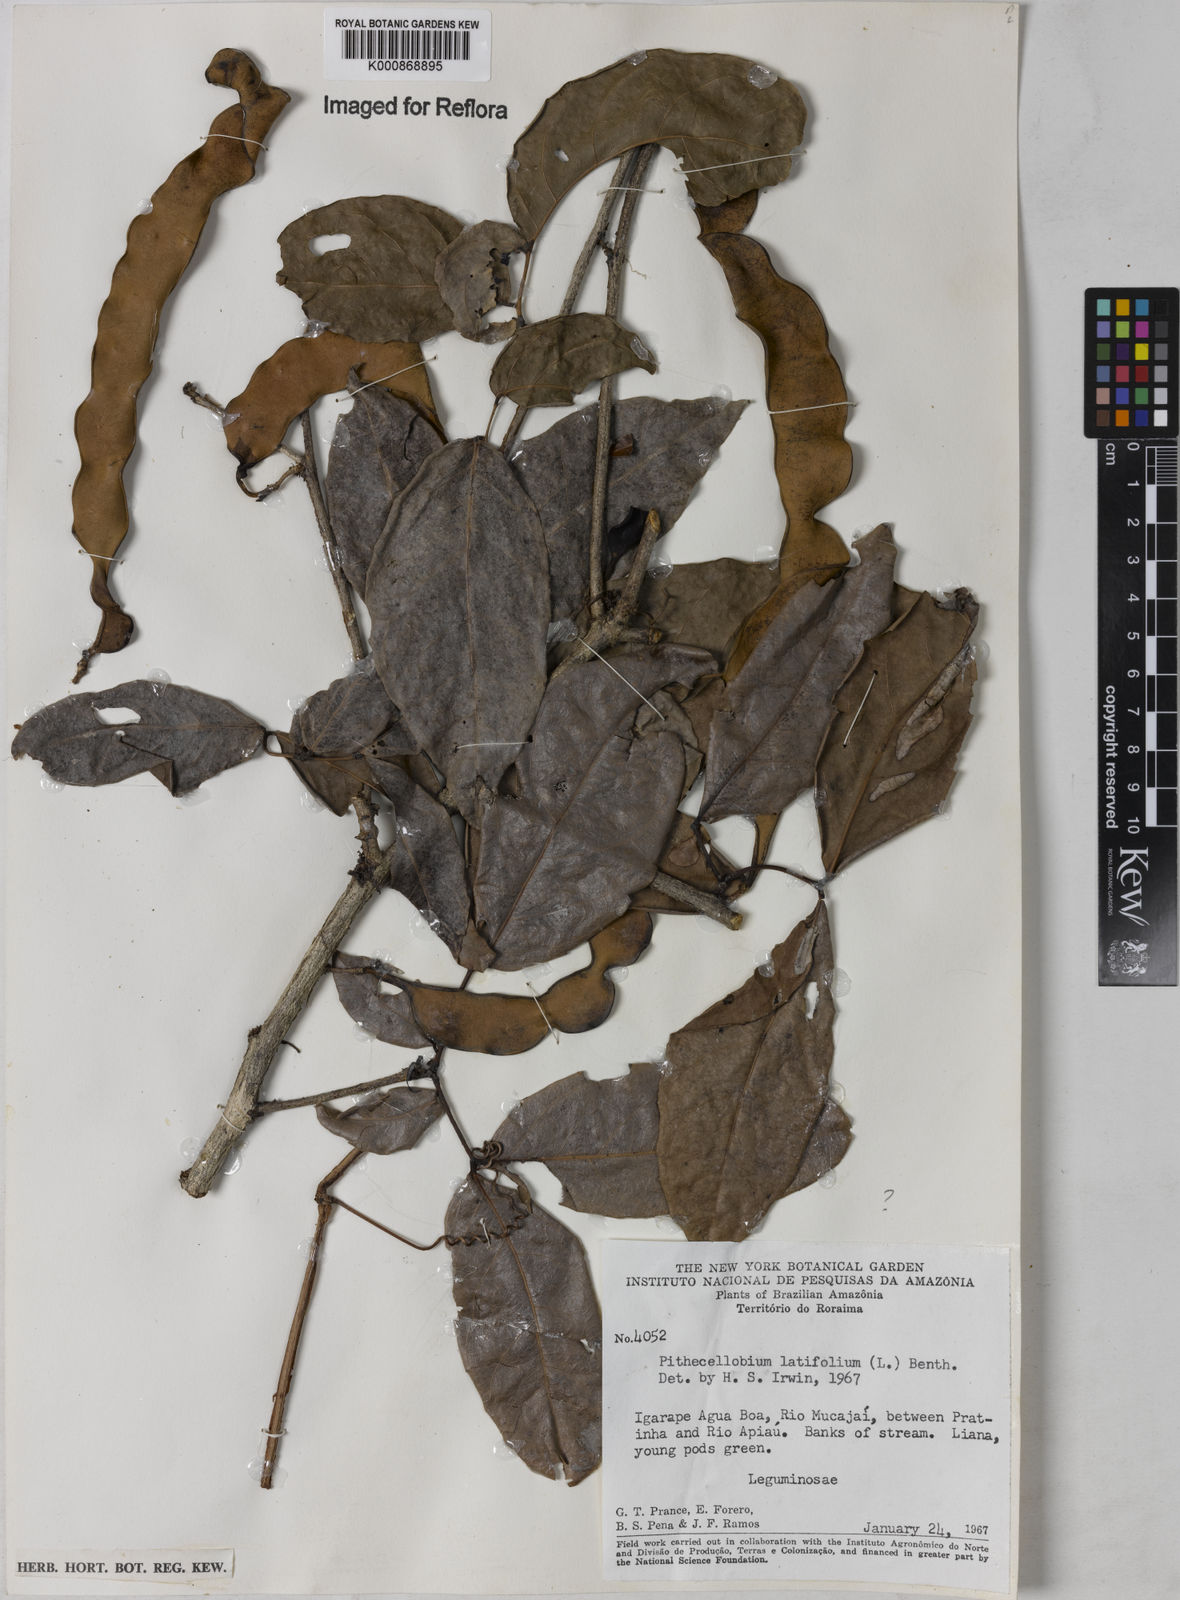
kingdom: Plantae
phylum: Tracheophyta
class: Magnoliopsida
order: Fabales
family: Fabaceae
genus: Zygia
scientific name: Zygia latifolia
